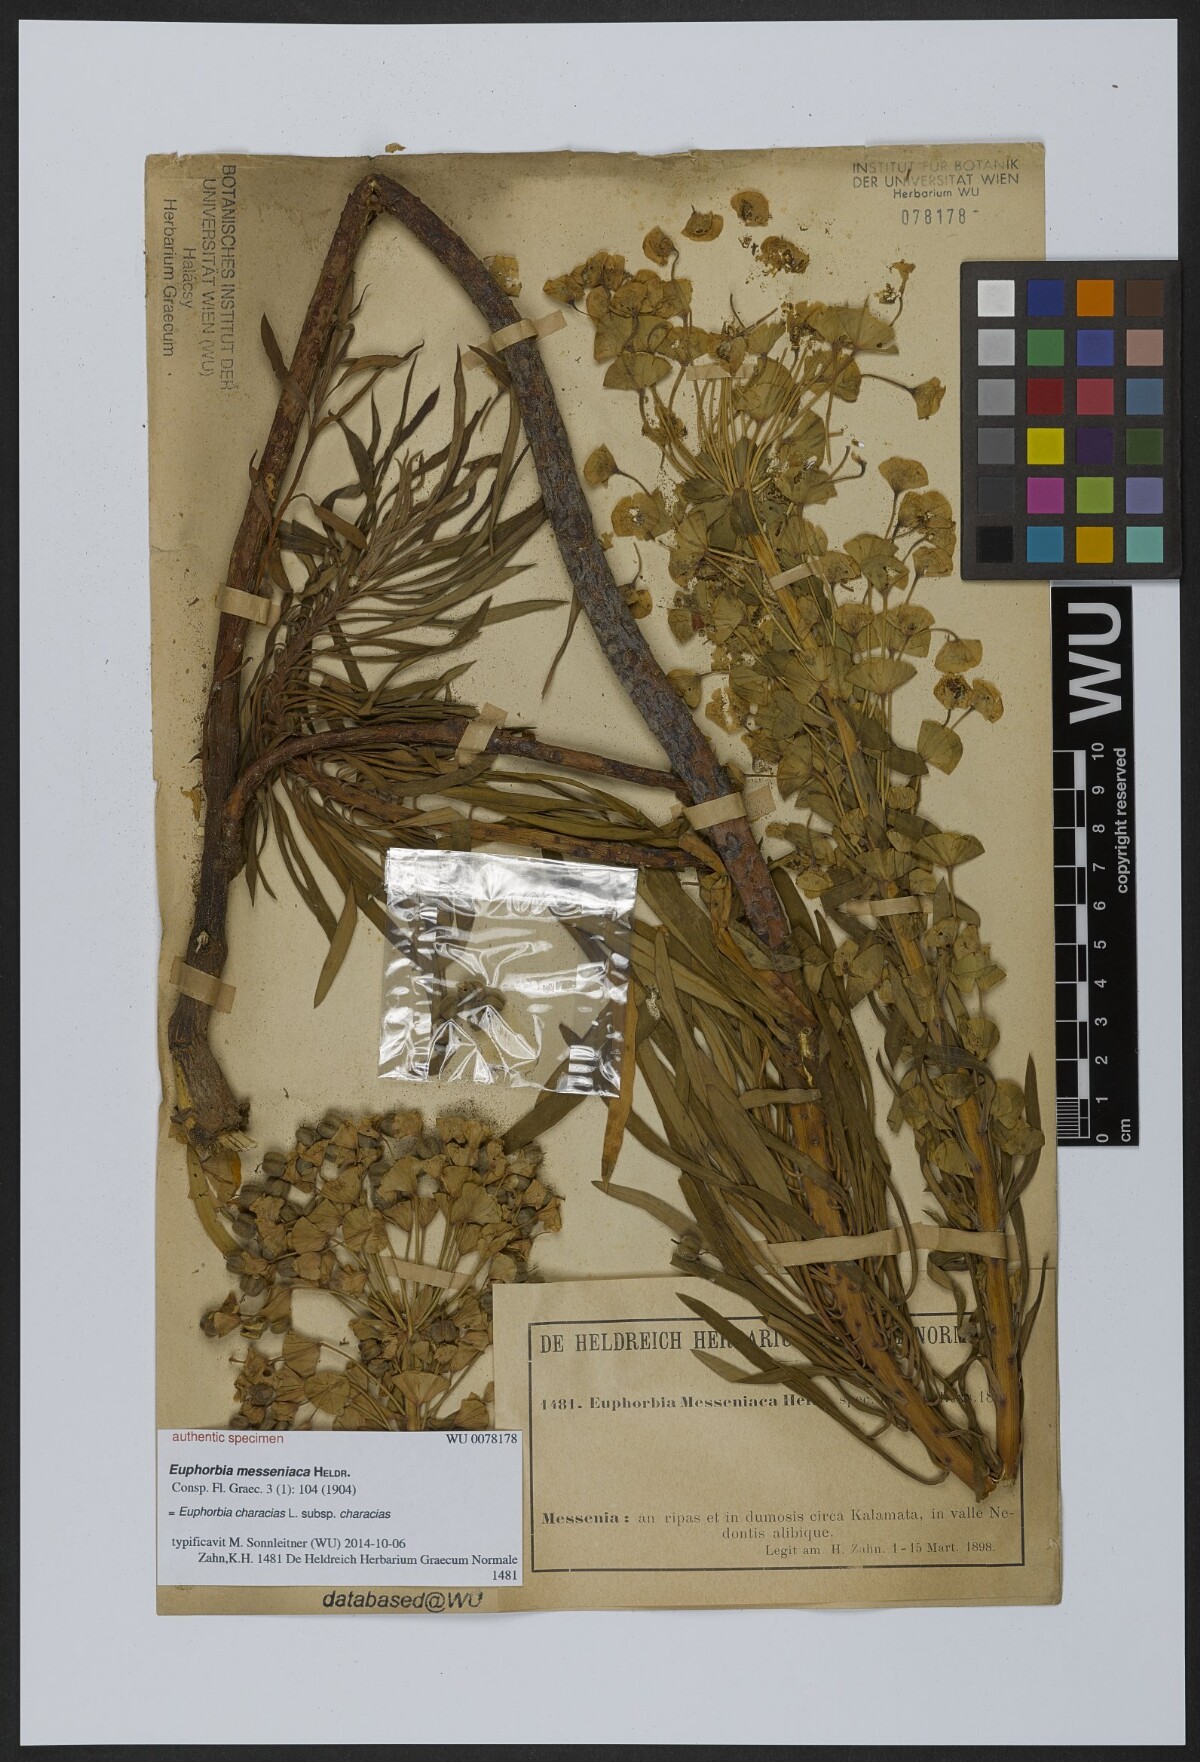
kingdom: Plantae
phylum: Tracheophyta
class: Magnoliopsida
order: Malpighiales
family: Euphorbiaceae
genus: Euphorbia
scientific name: Euphorbia characias
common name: Mediterranean spurge
